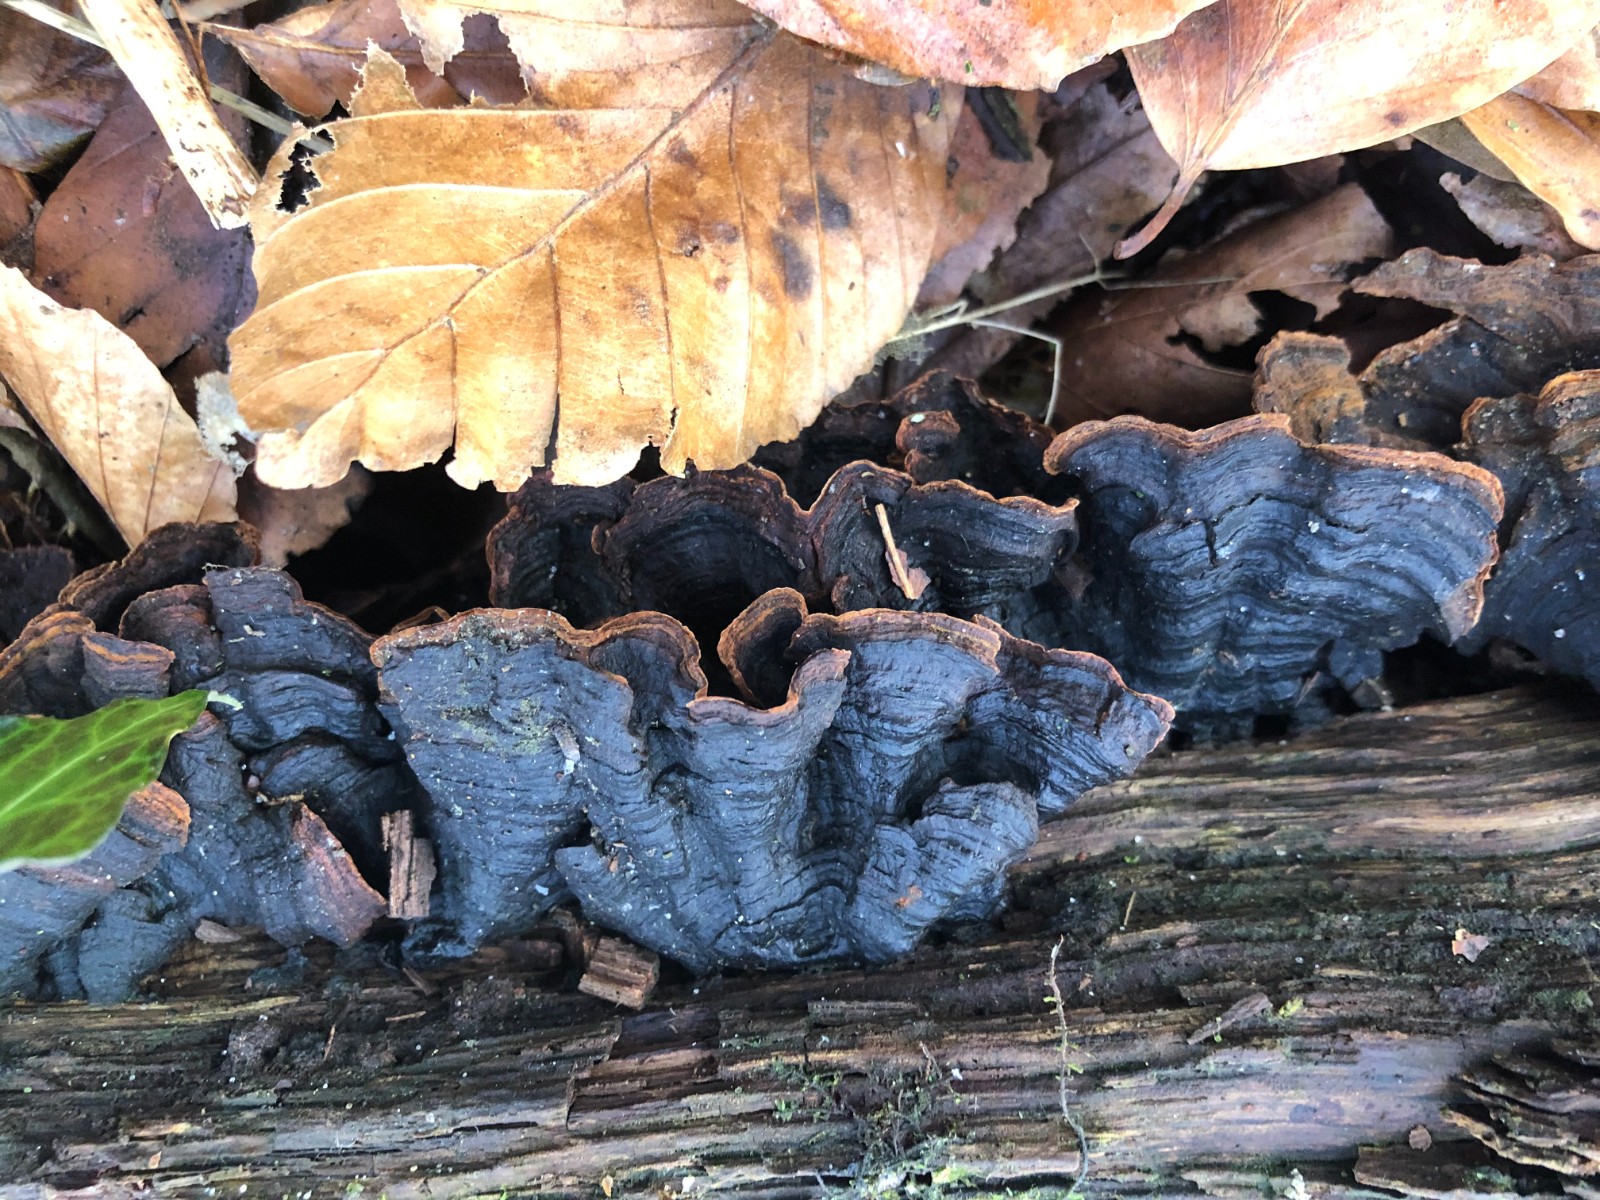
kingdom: Fungi
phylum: Basidiomycota
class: Agaricomycetes
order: Hymenochaetales
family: Hymenochaetaceae
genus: Hymenochaete
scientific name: Hymenochaete rubiginosa
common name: stiv ruslædersvamp
